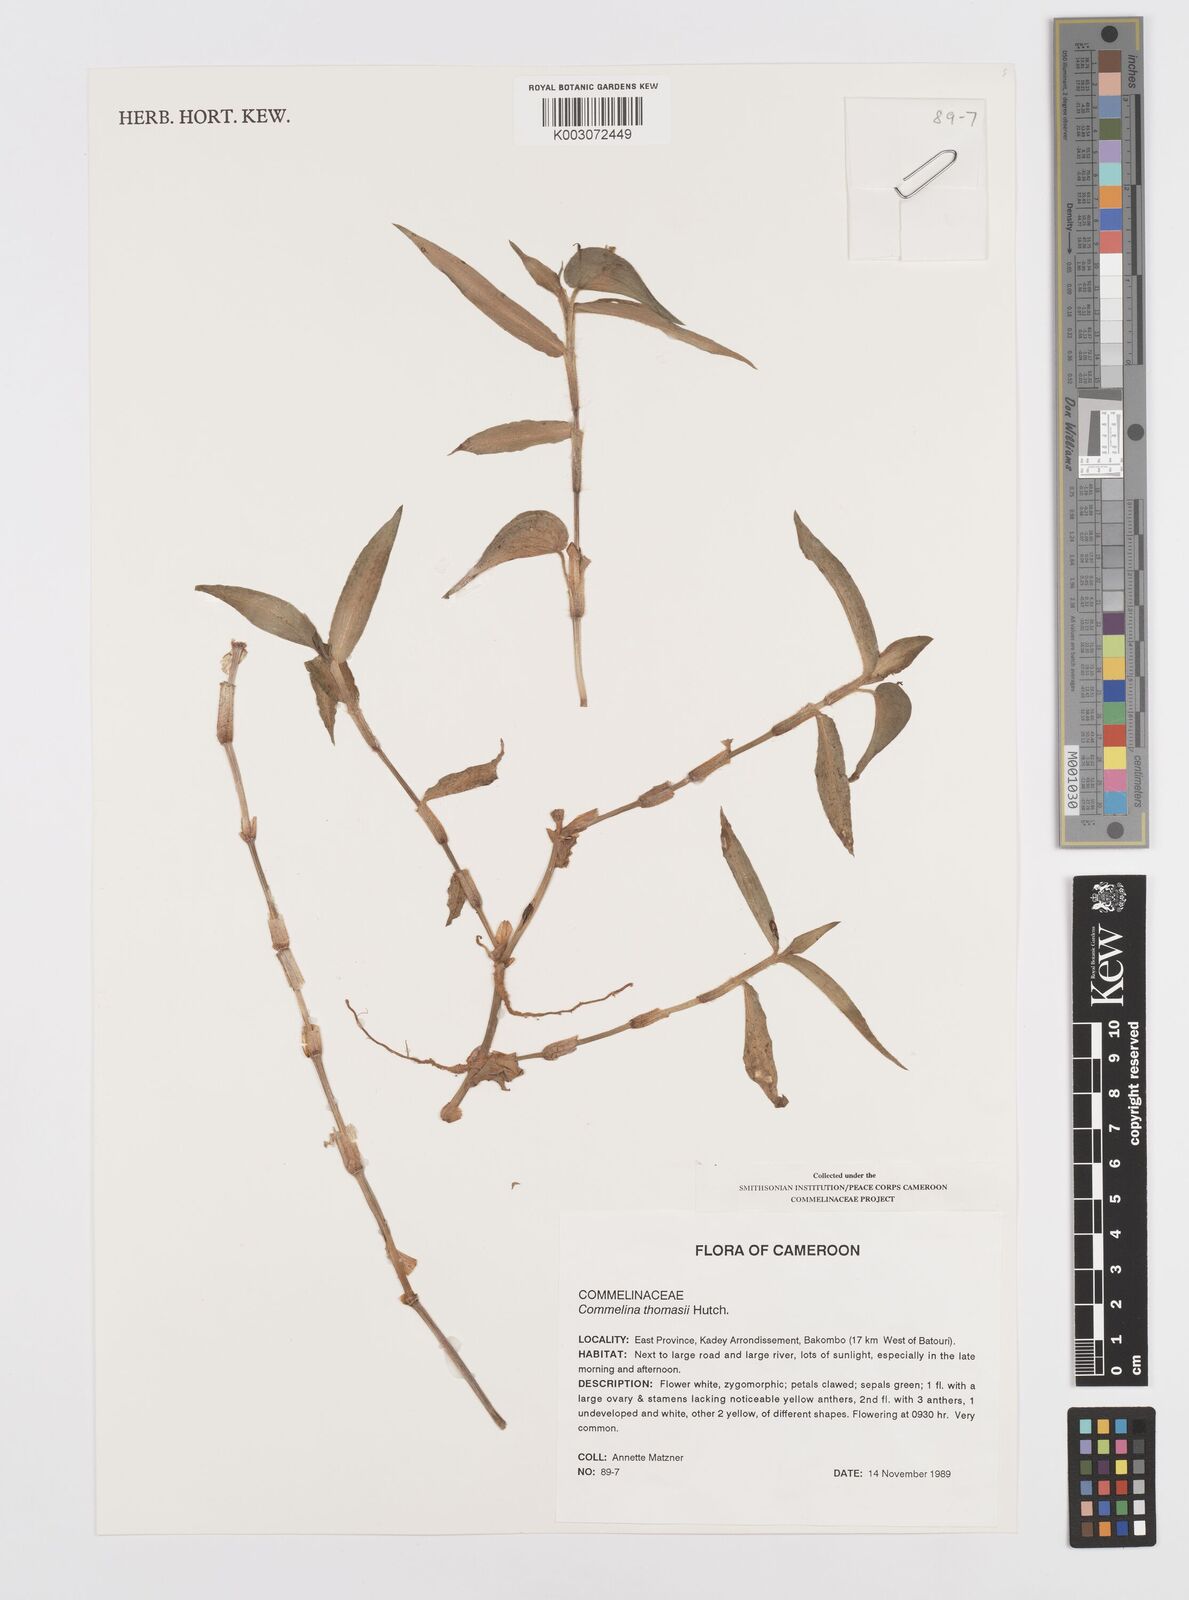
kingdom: Plantae
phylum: Tracheophyta
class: Liliopsida
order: Commelinales
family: Commelinaceae
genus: Commelina
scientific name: Commelina acutispatha
